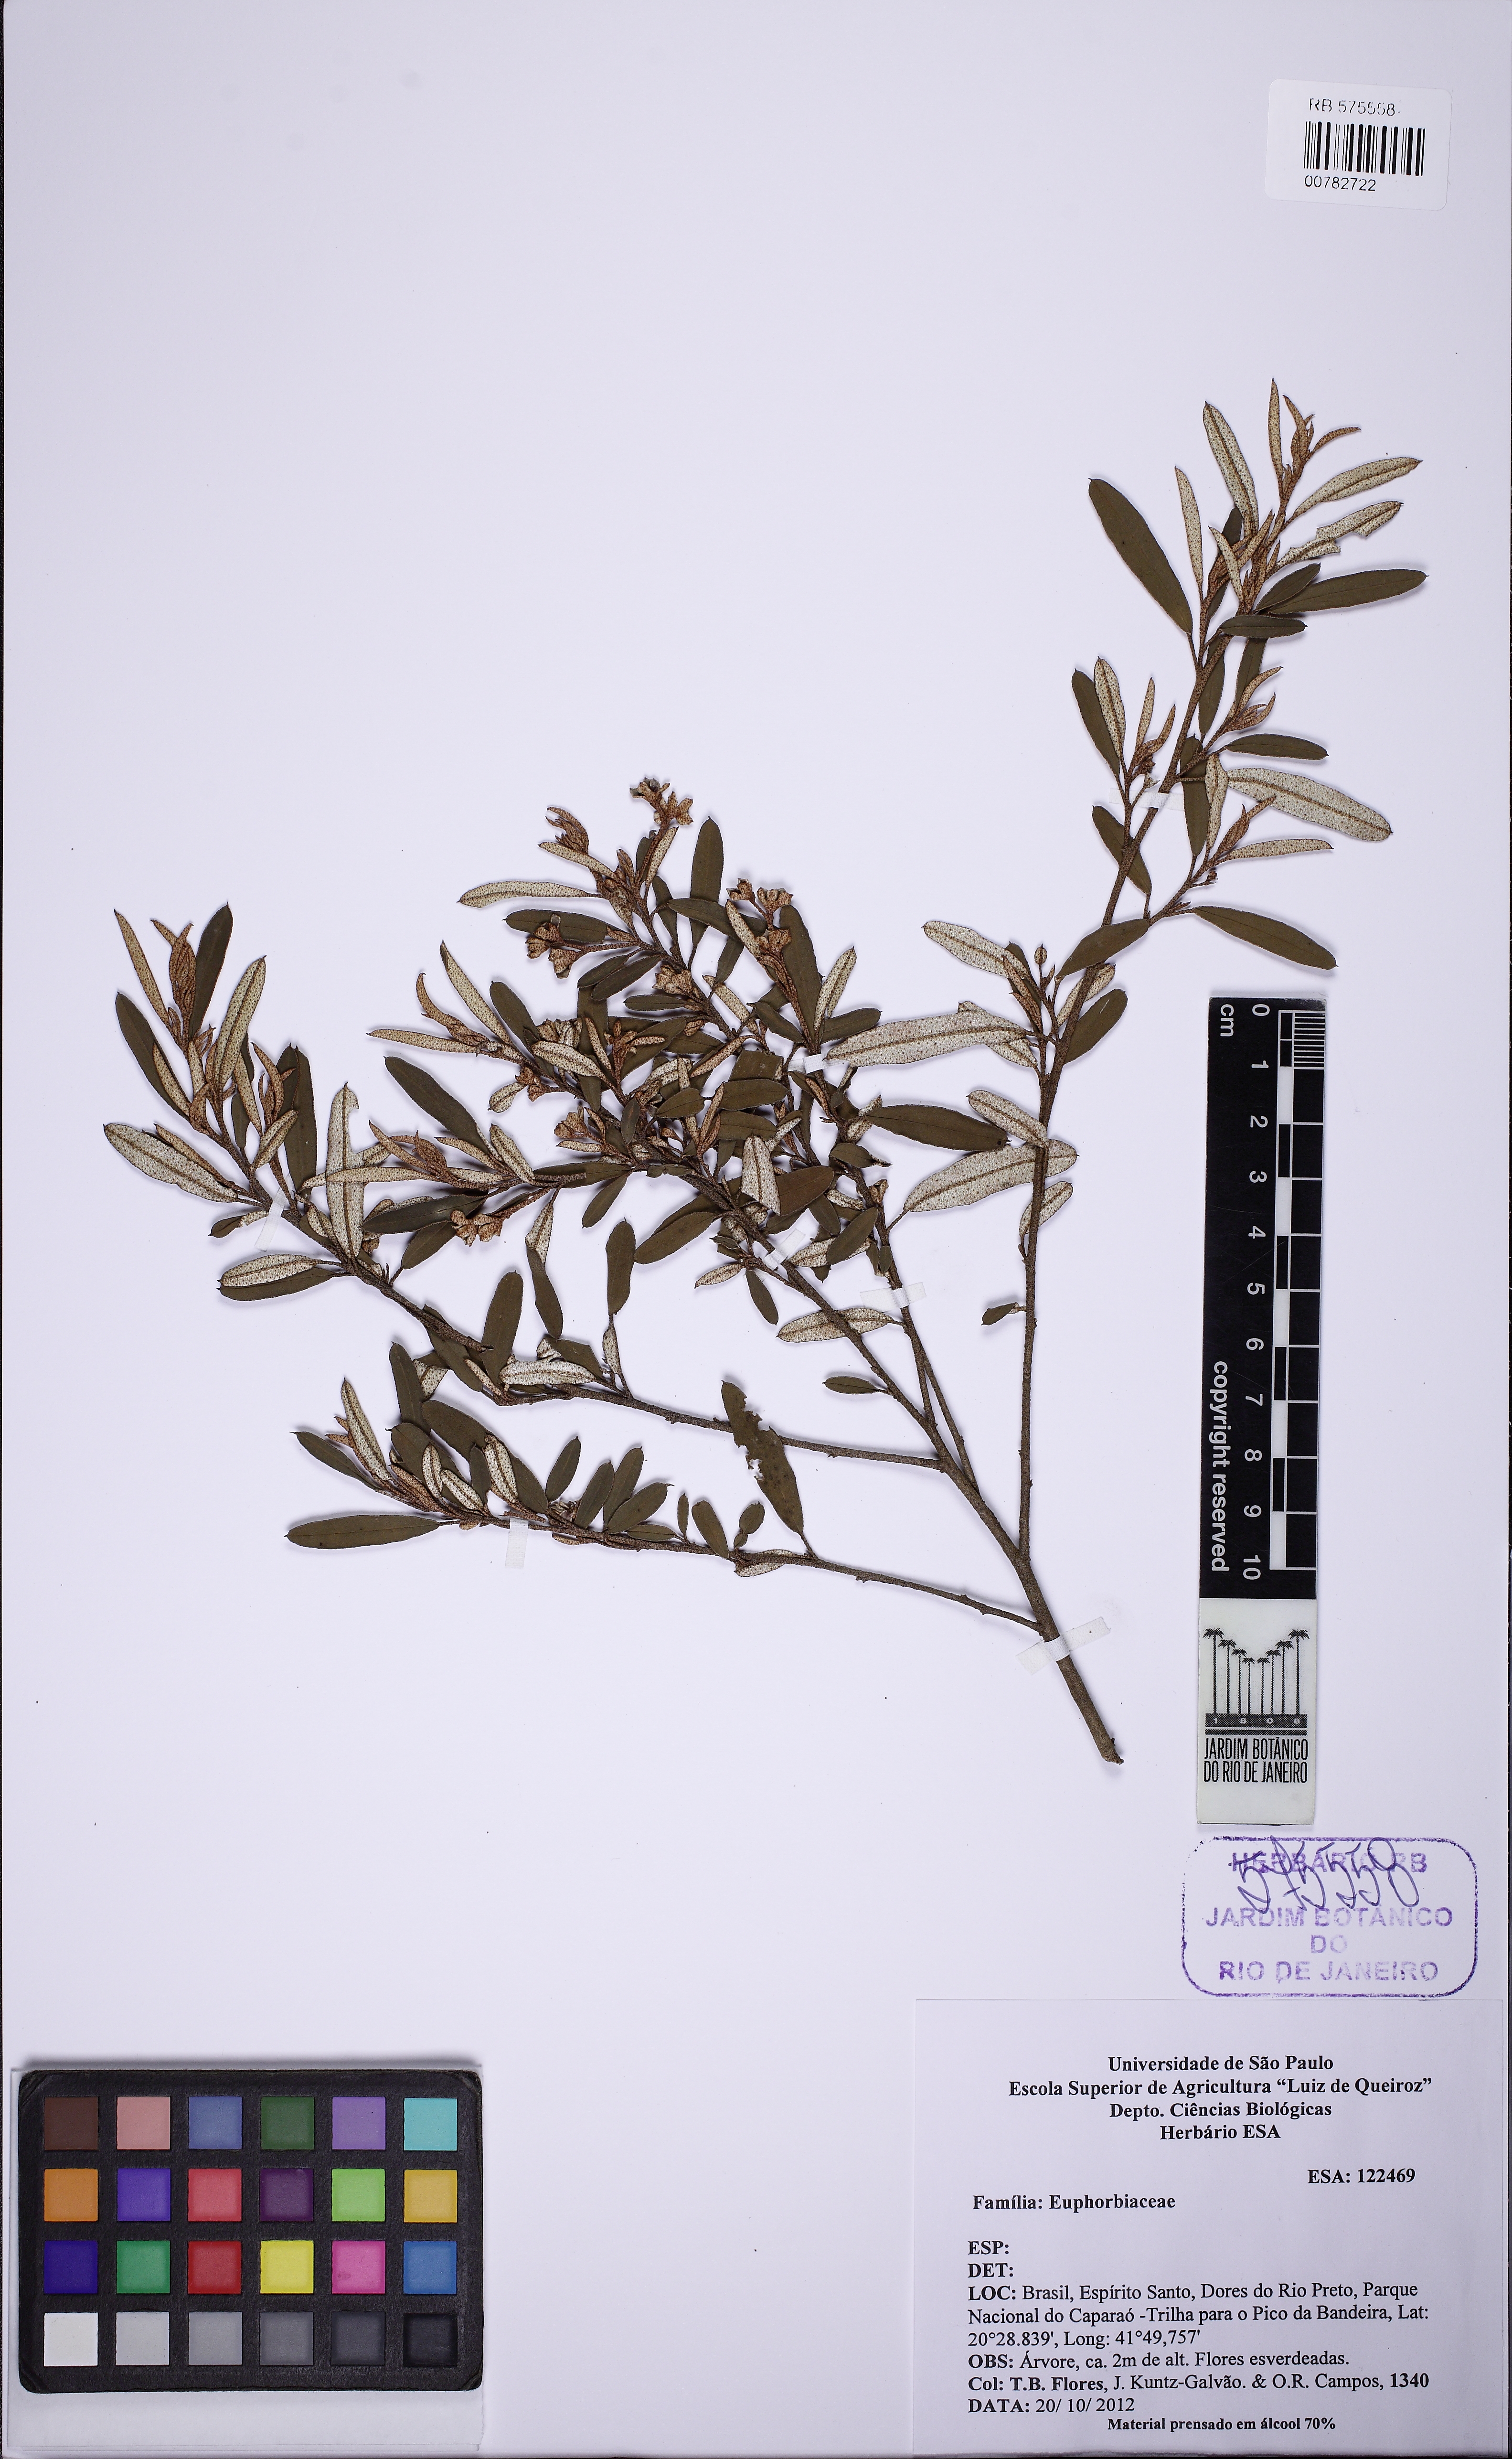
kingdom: Plantae
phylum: Tracheophyta
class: Magnoliopsida
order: Malpighiales
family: Euphorbiaceae
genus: Croton
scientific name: Croton splendidus
